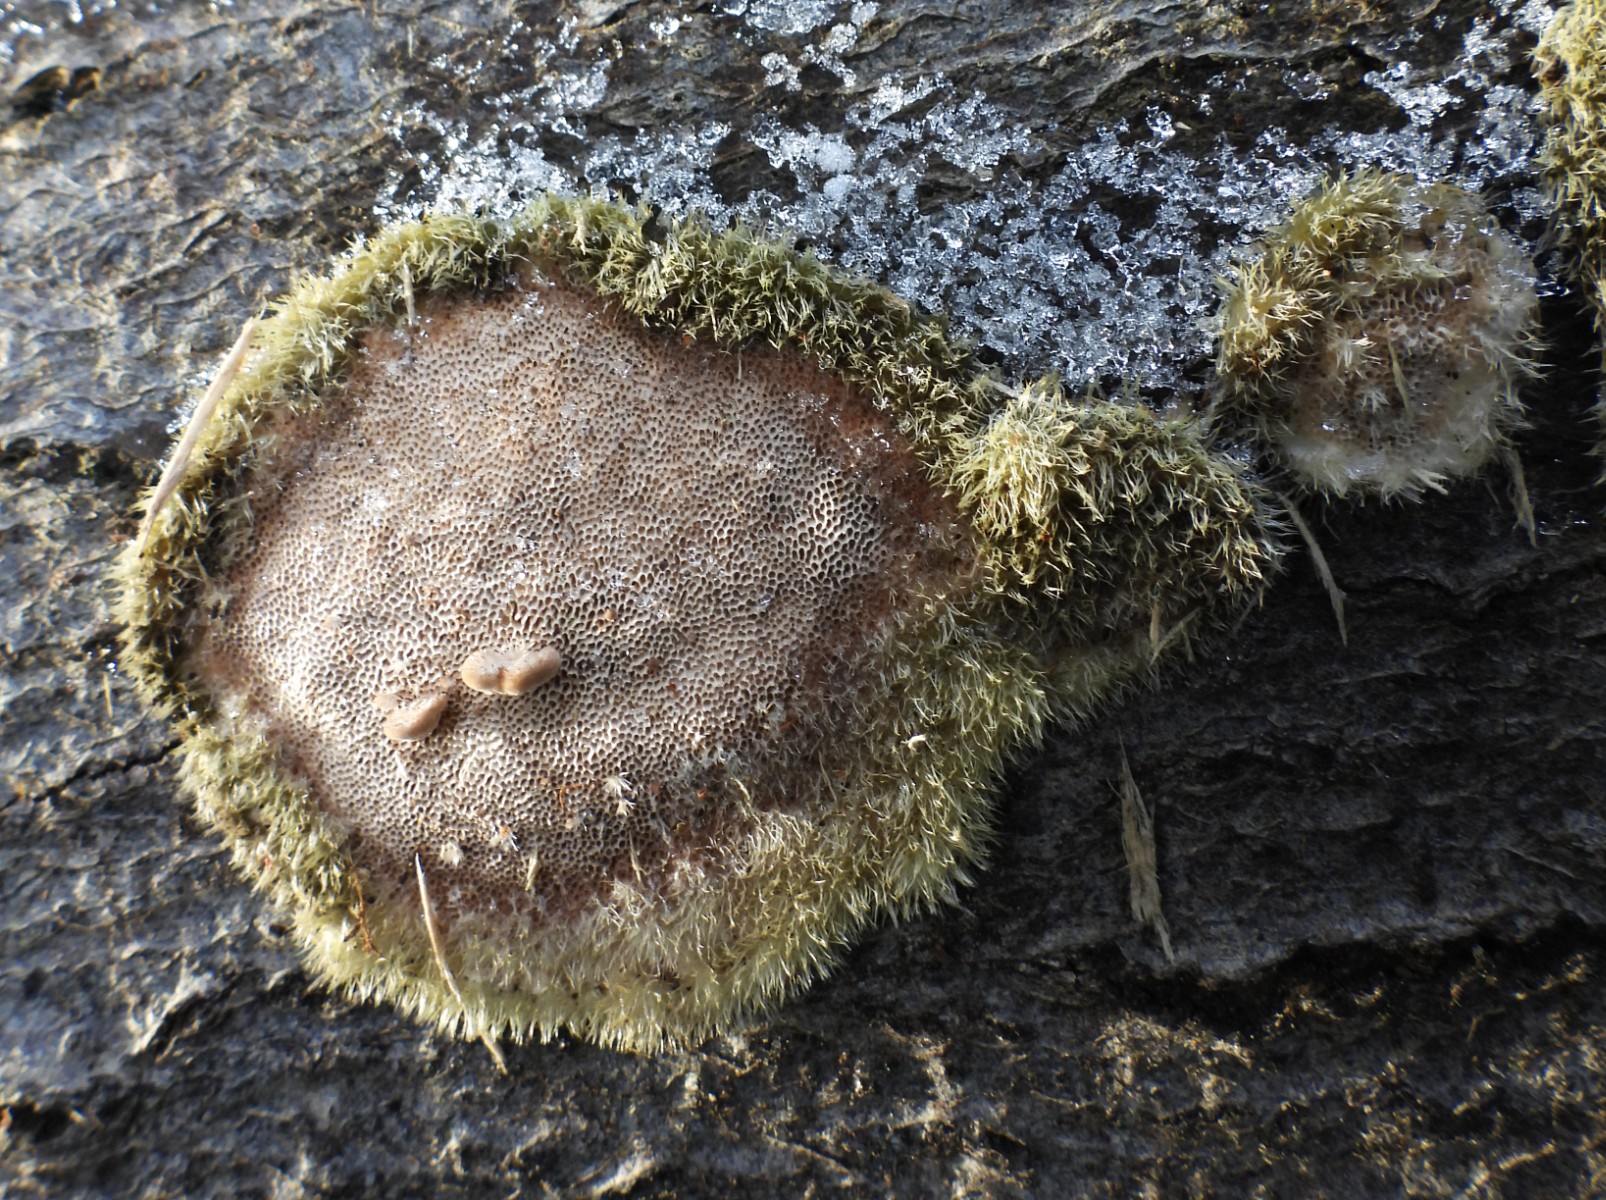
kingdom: Fungi
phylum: Basidiomycota
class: Agaricomycetes
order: Polyporales
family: Polyporaceae
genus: Trametes
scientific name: Trametes hirsuta
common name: håret læderporesvamp
